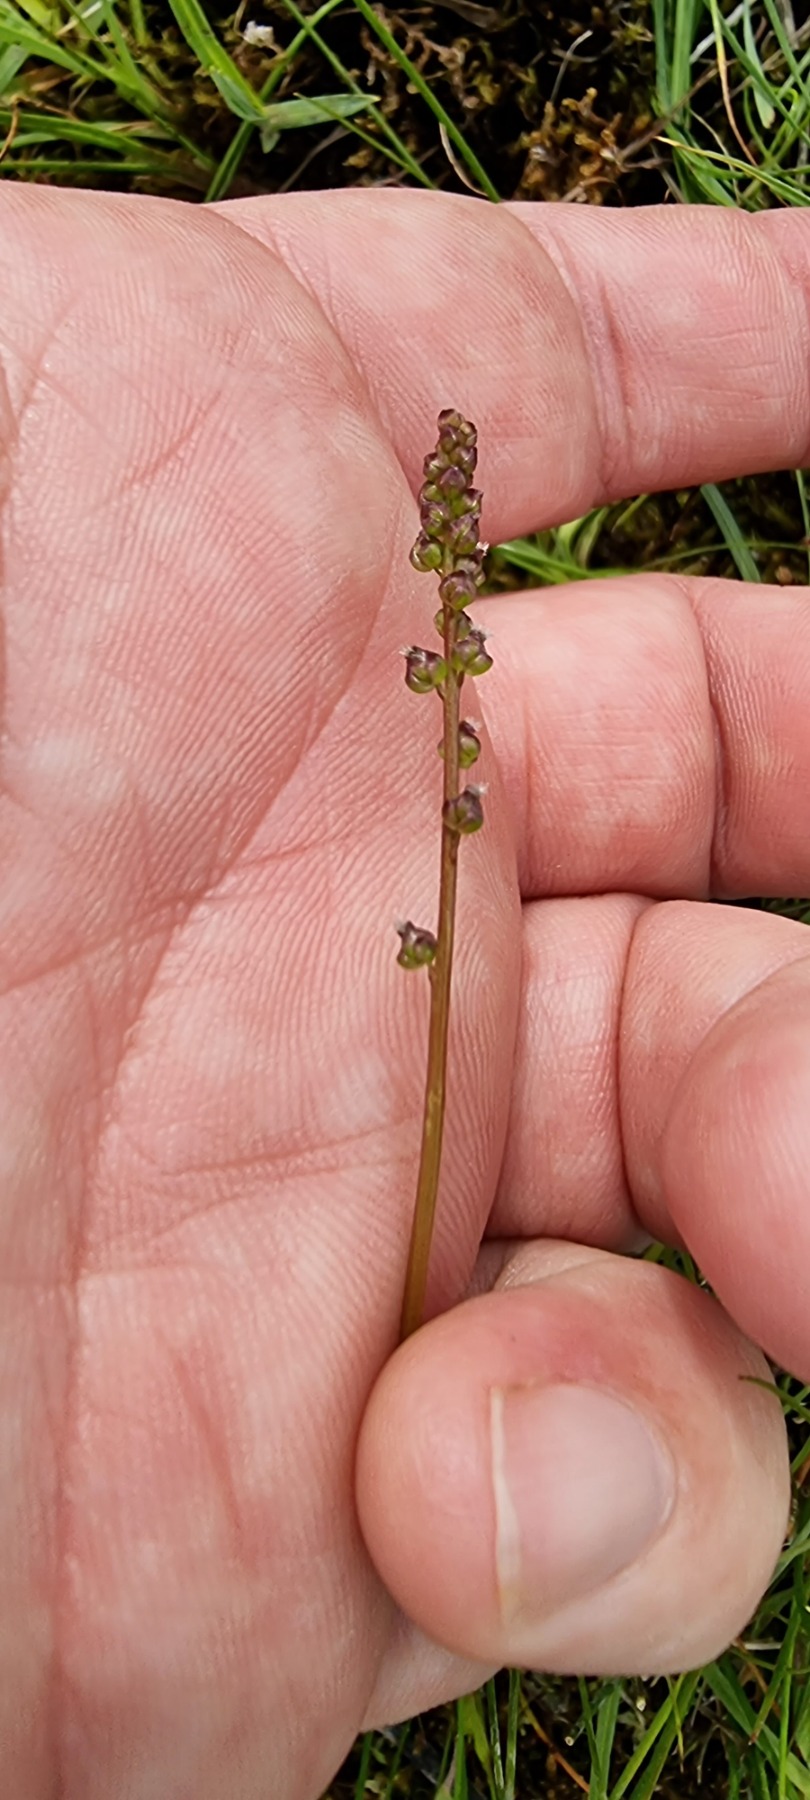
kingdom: Plantae
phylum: Tracheophyta
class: Liliopsida
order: Alismatales
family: Juncaginaceae
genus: Triglochin
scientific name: Triglochin palustris
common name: Kær-trehage
